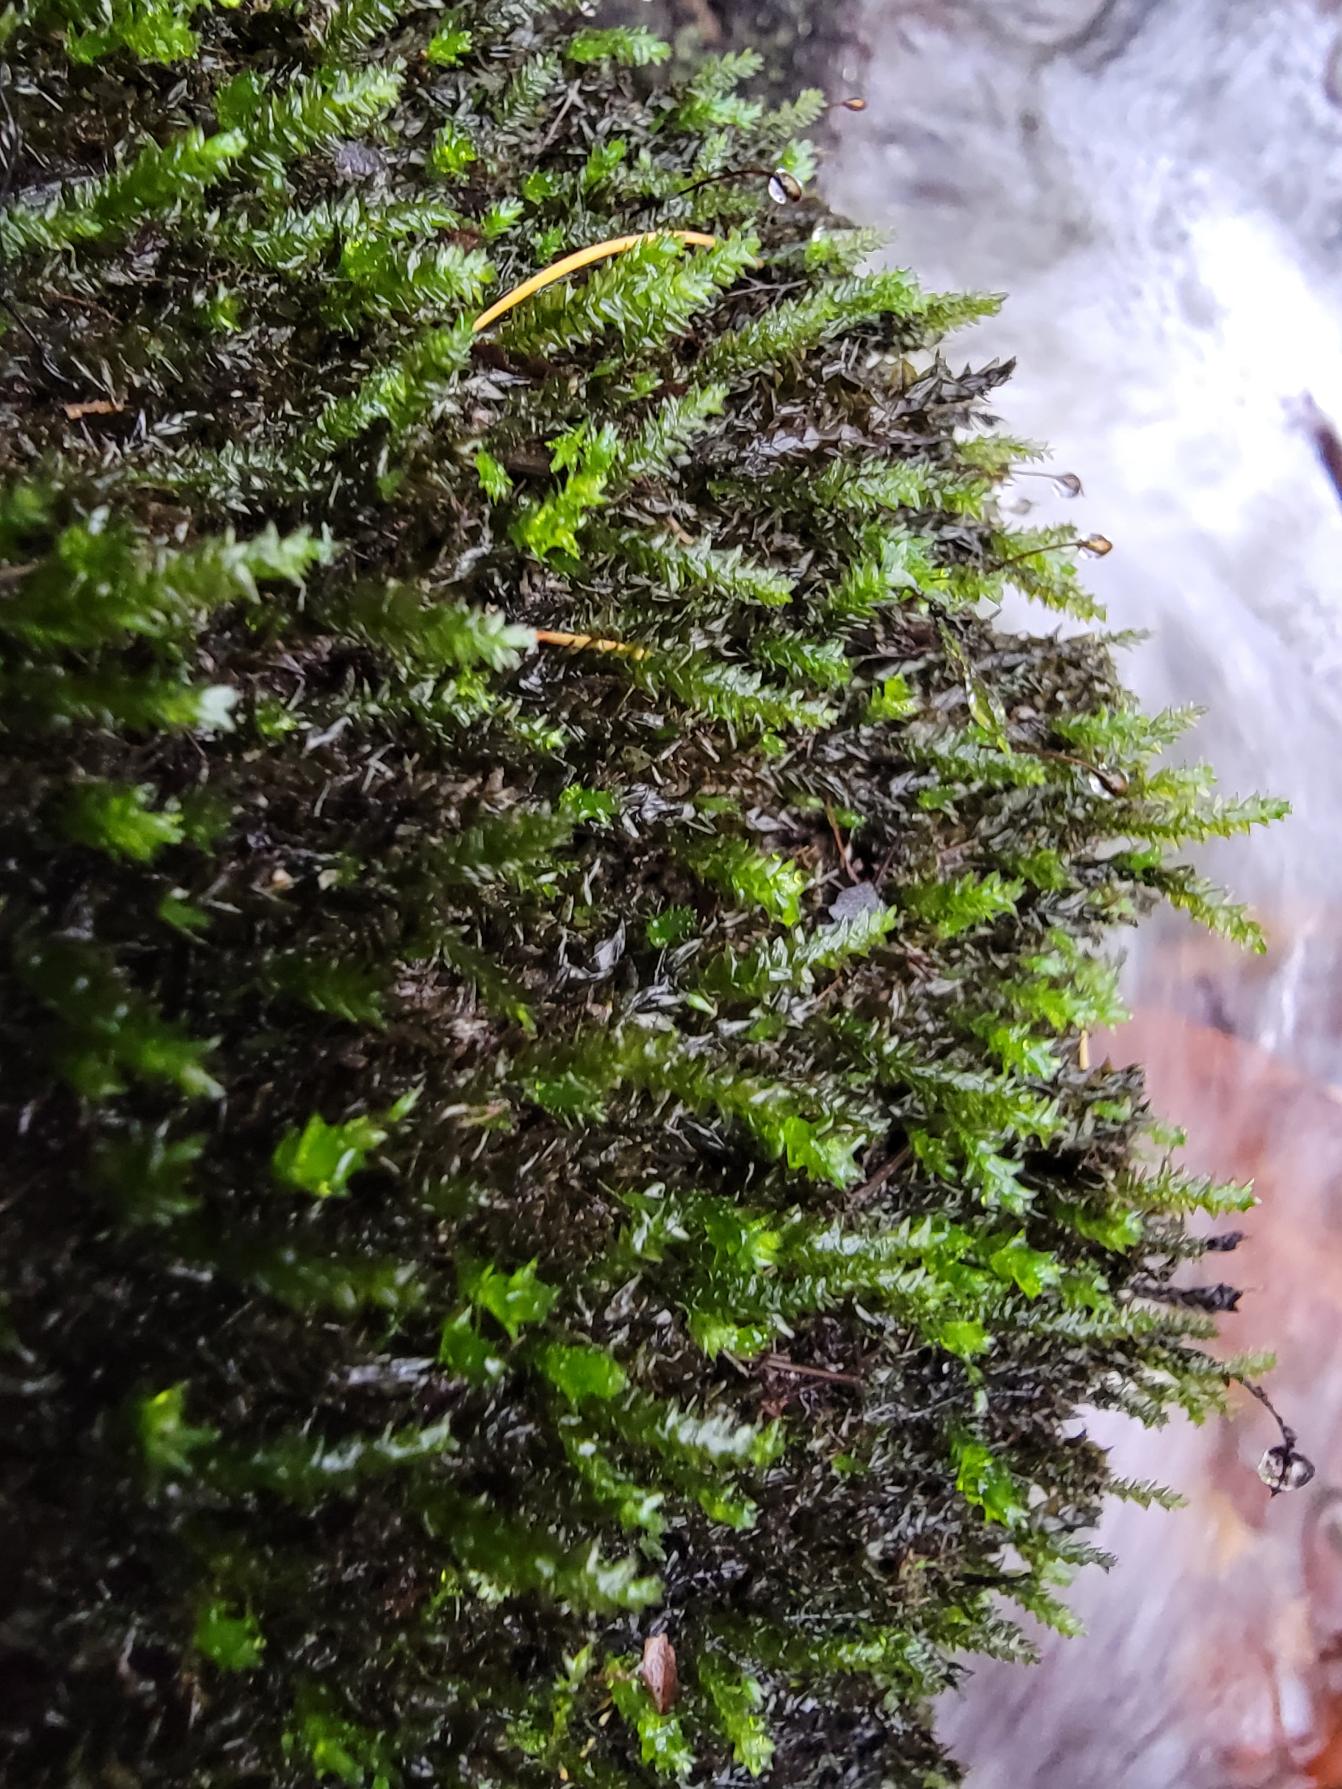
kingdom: Plantae
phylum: Bryophyta
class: Bryopsida
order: Hypnales
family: Brachytheciaceae
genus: Rhynchostegium
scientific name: Rhynchostegium riparioides
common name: Robust strømmos
